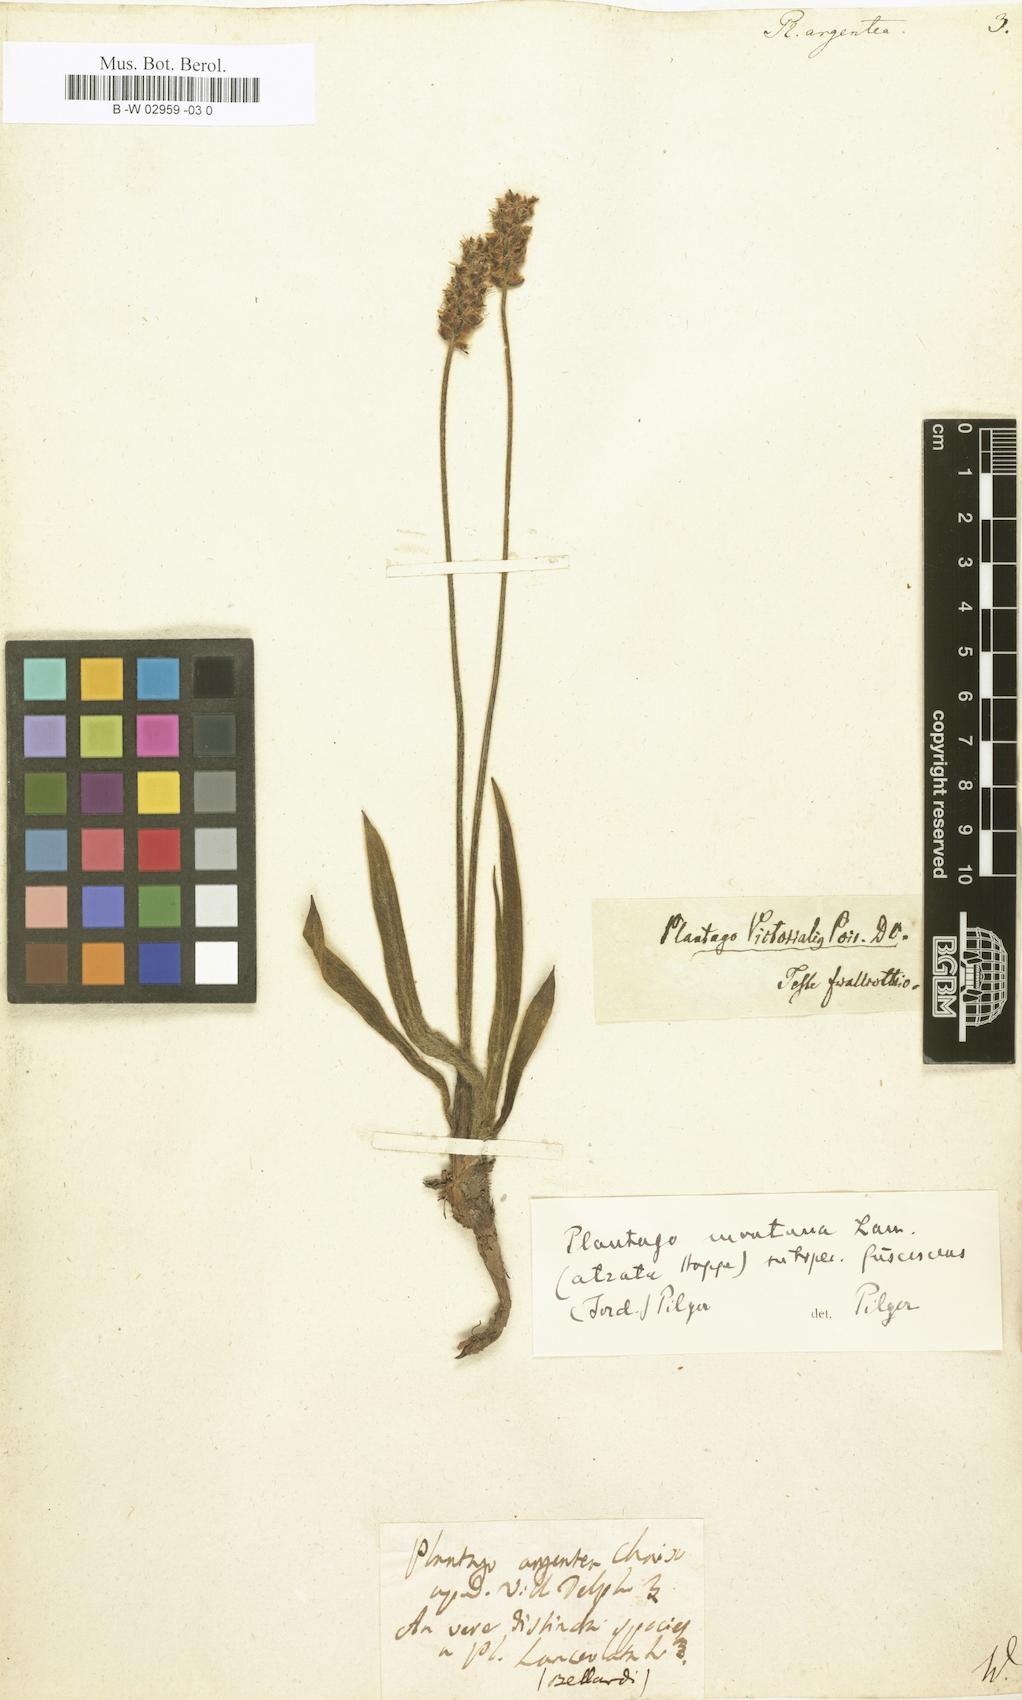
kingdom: Plantae
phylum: Tracheophyta
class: Magnoliopsida
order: Lamiales
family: Plantaginaceae
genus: Plantago
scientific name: Plantago argentea
